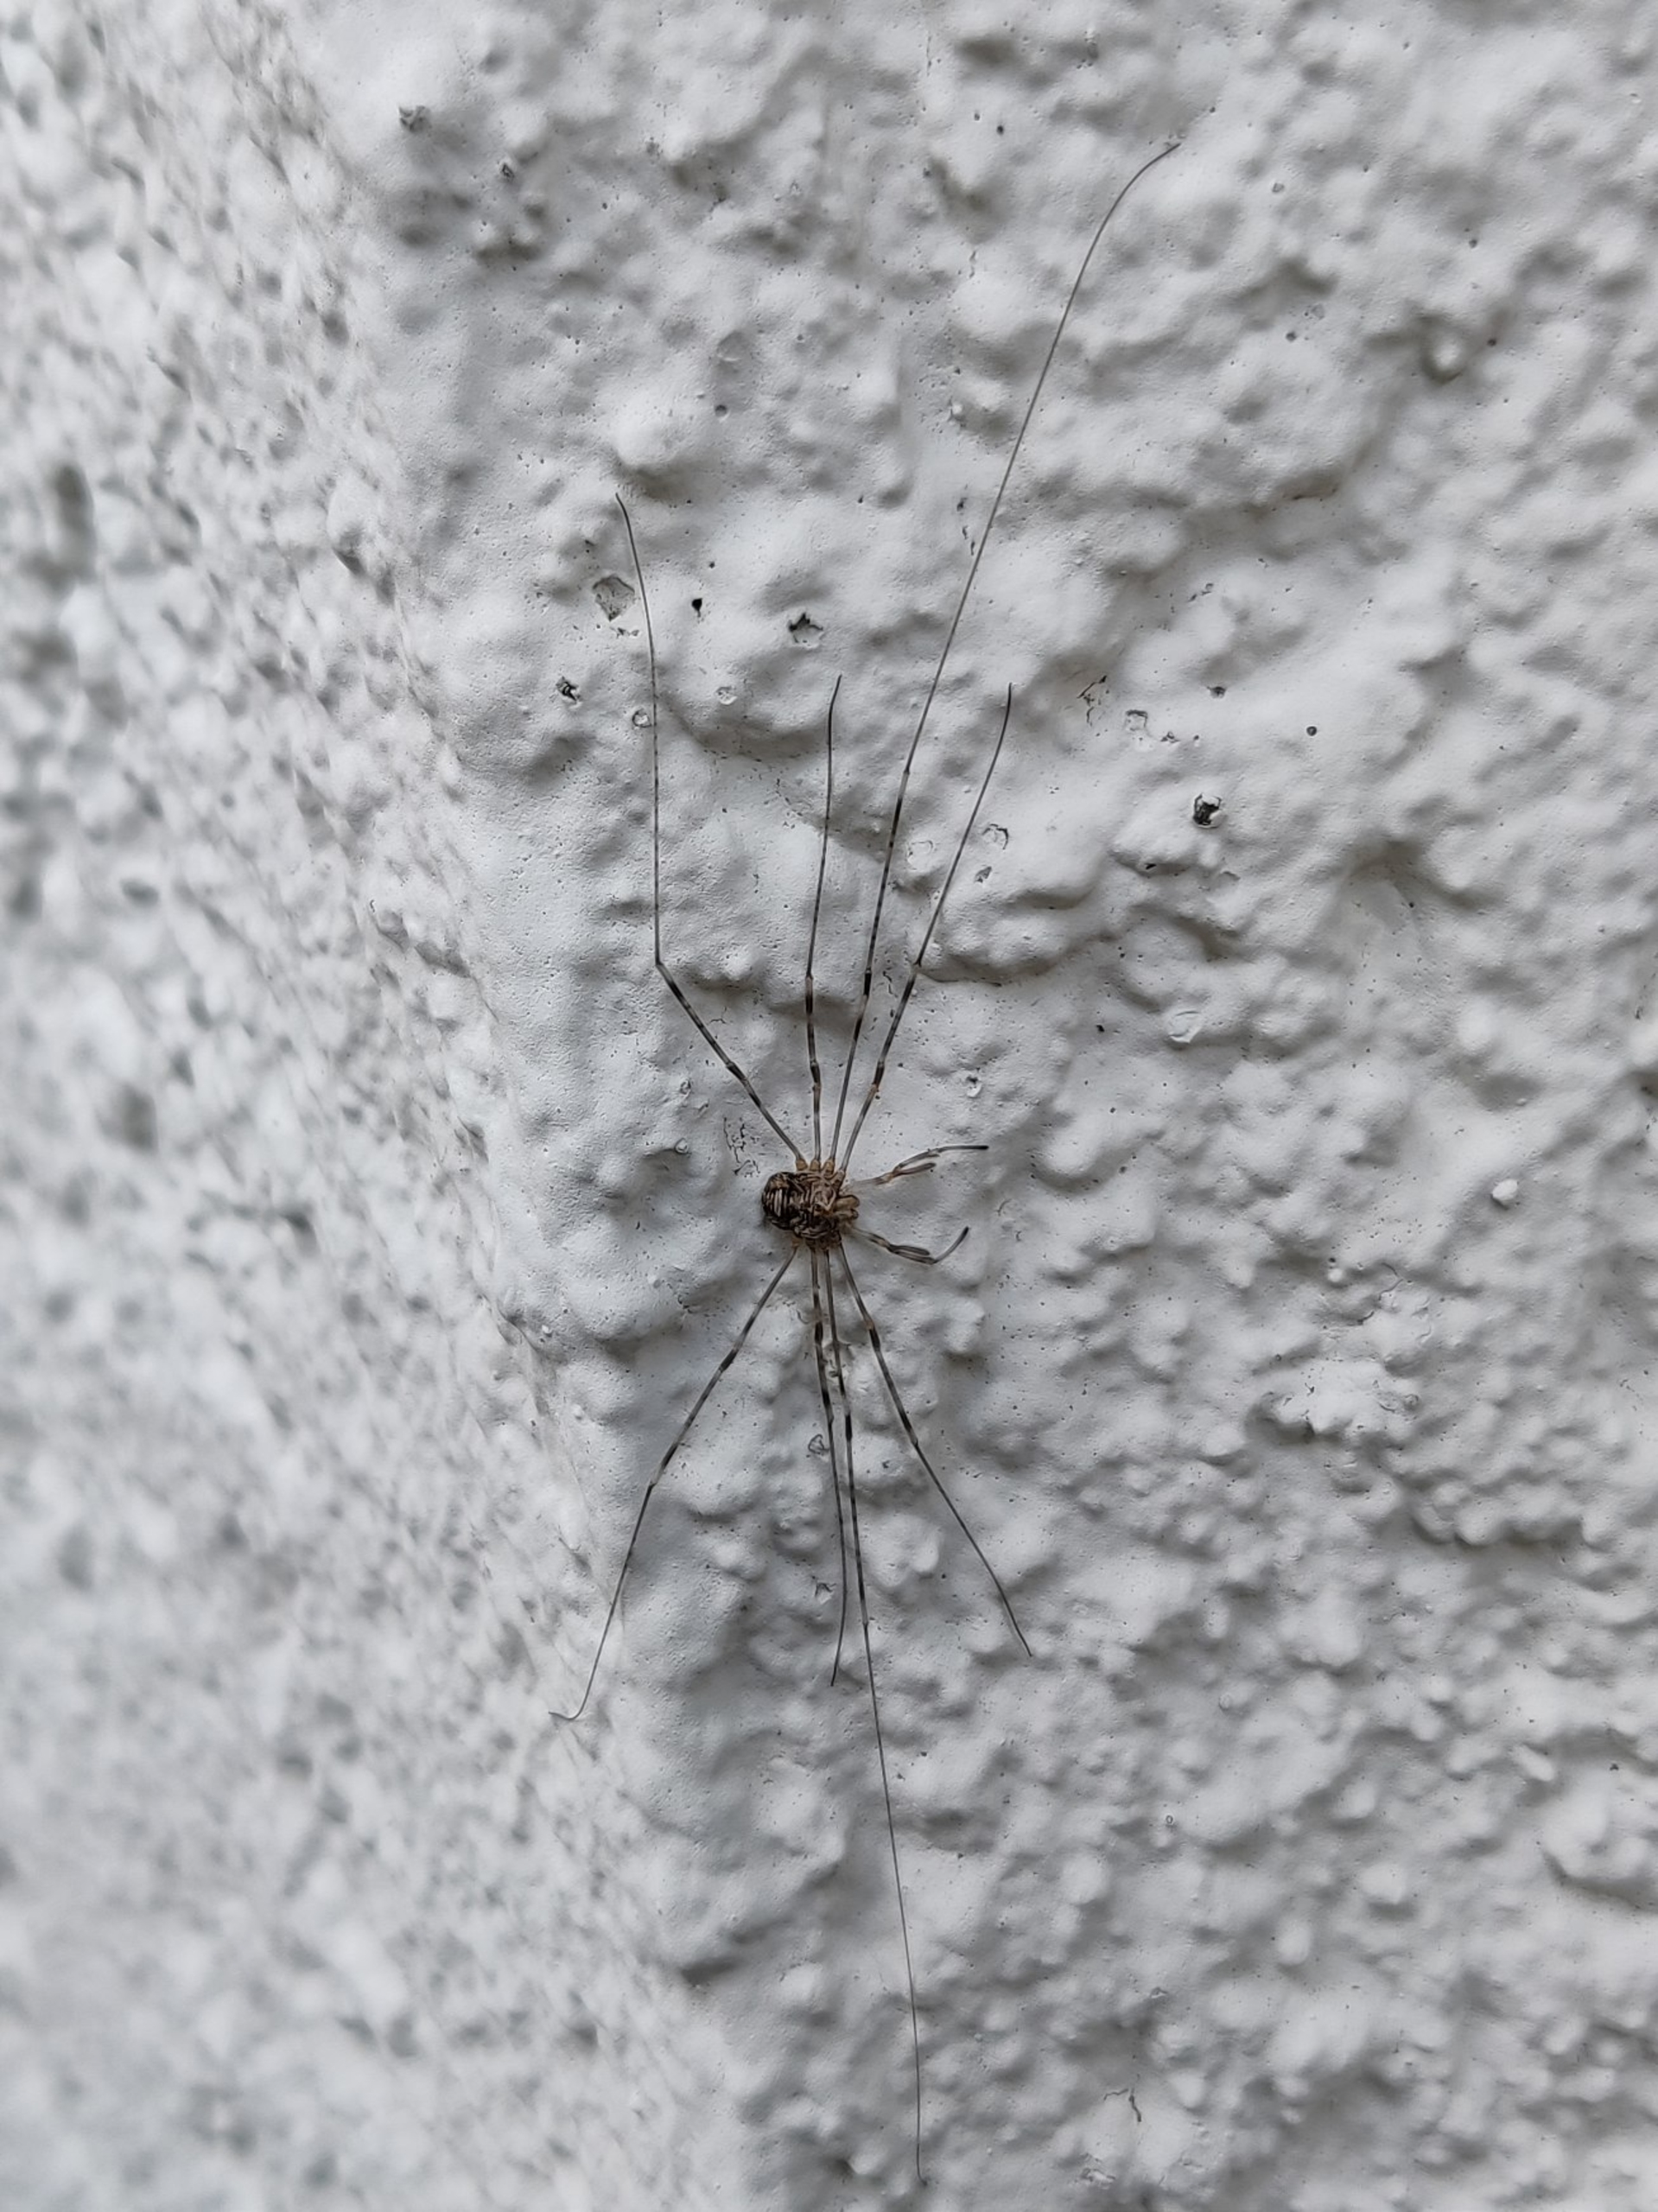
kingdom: Animalia
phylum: Arthropoda
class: Arachnida
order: Opiliones
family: Phalangiidae
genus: Dicranopalpus
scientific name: Dicranopalpus ramosus
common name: Gaffelmejer
